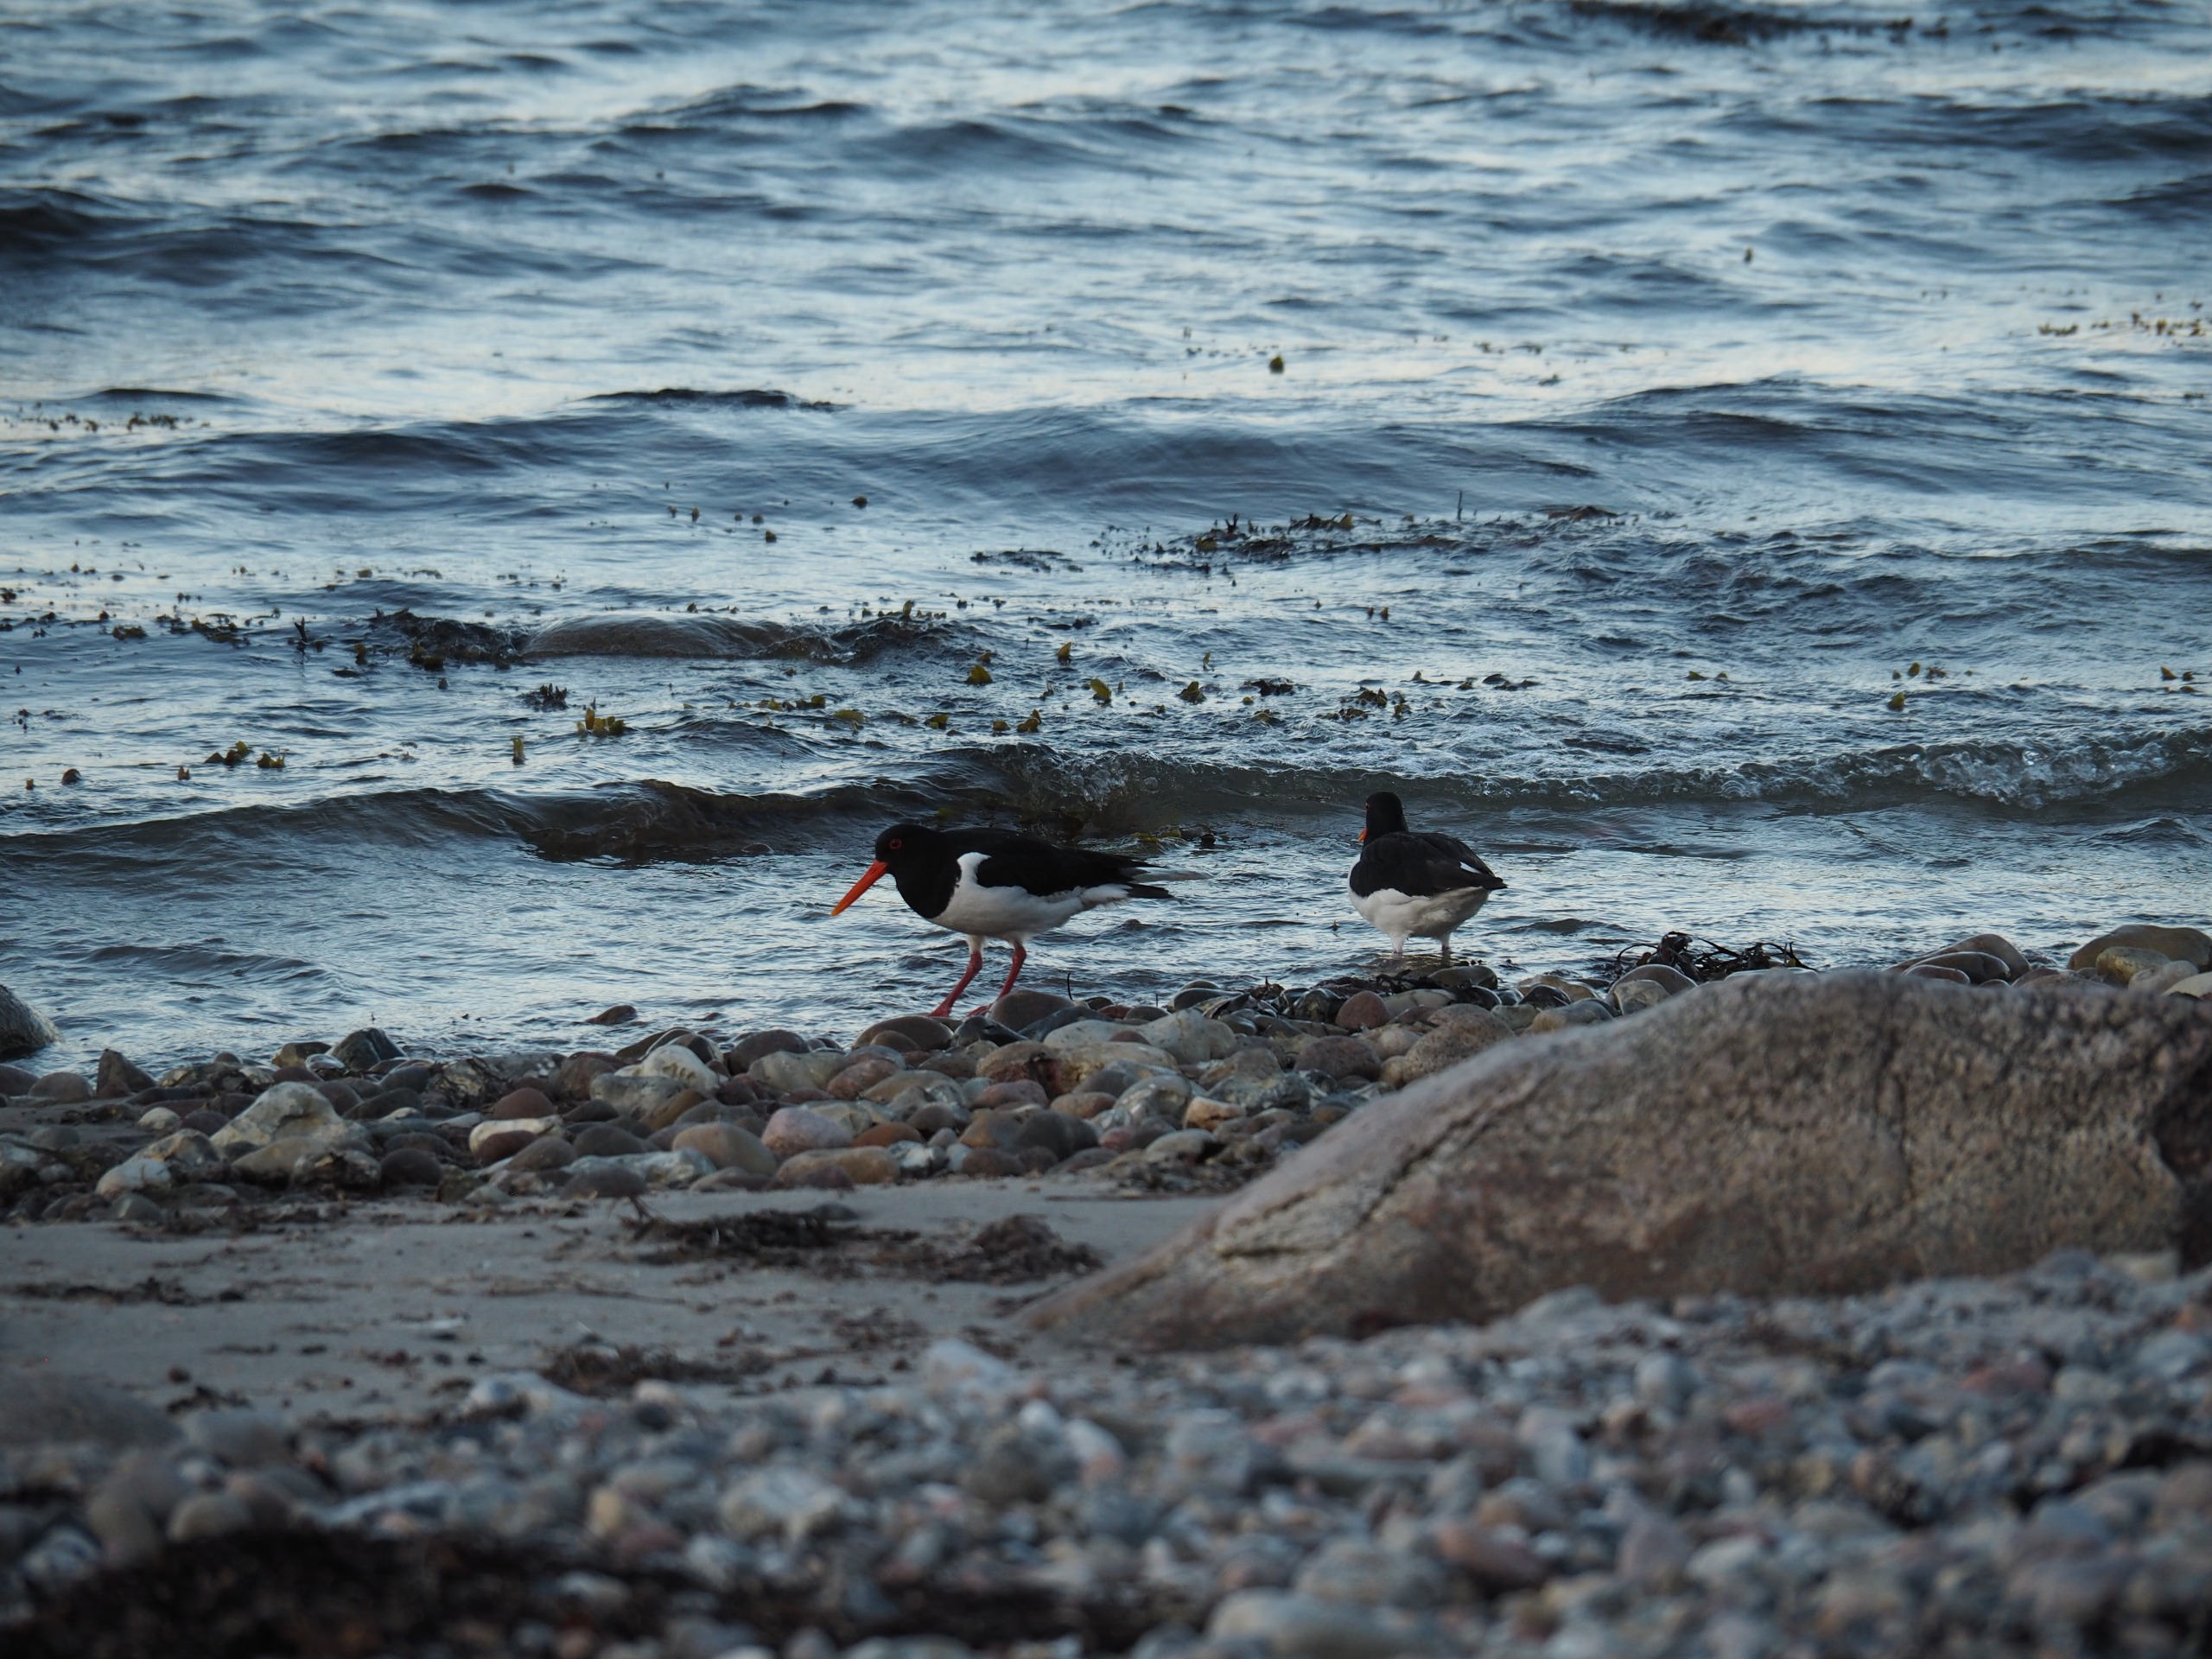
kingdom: Animalia
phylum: Chordata
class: Aves
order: Charadriiformes
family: Haematopodidae
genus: Haematopus
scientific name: Haematopus ostralegus
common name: Strandskade
